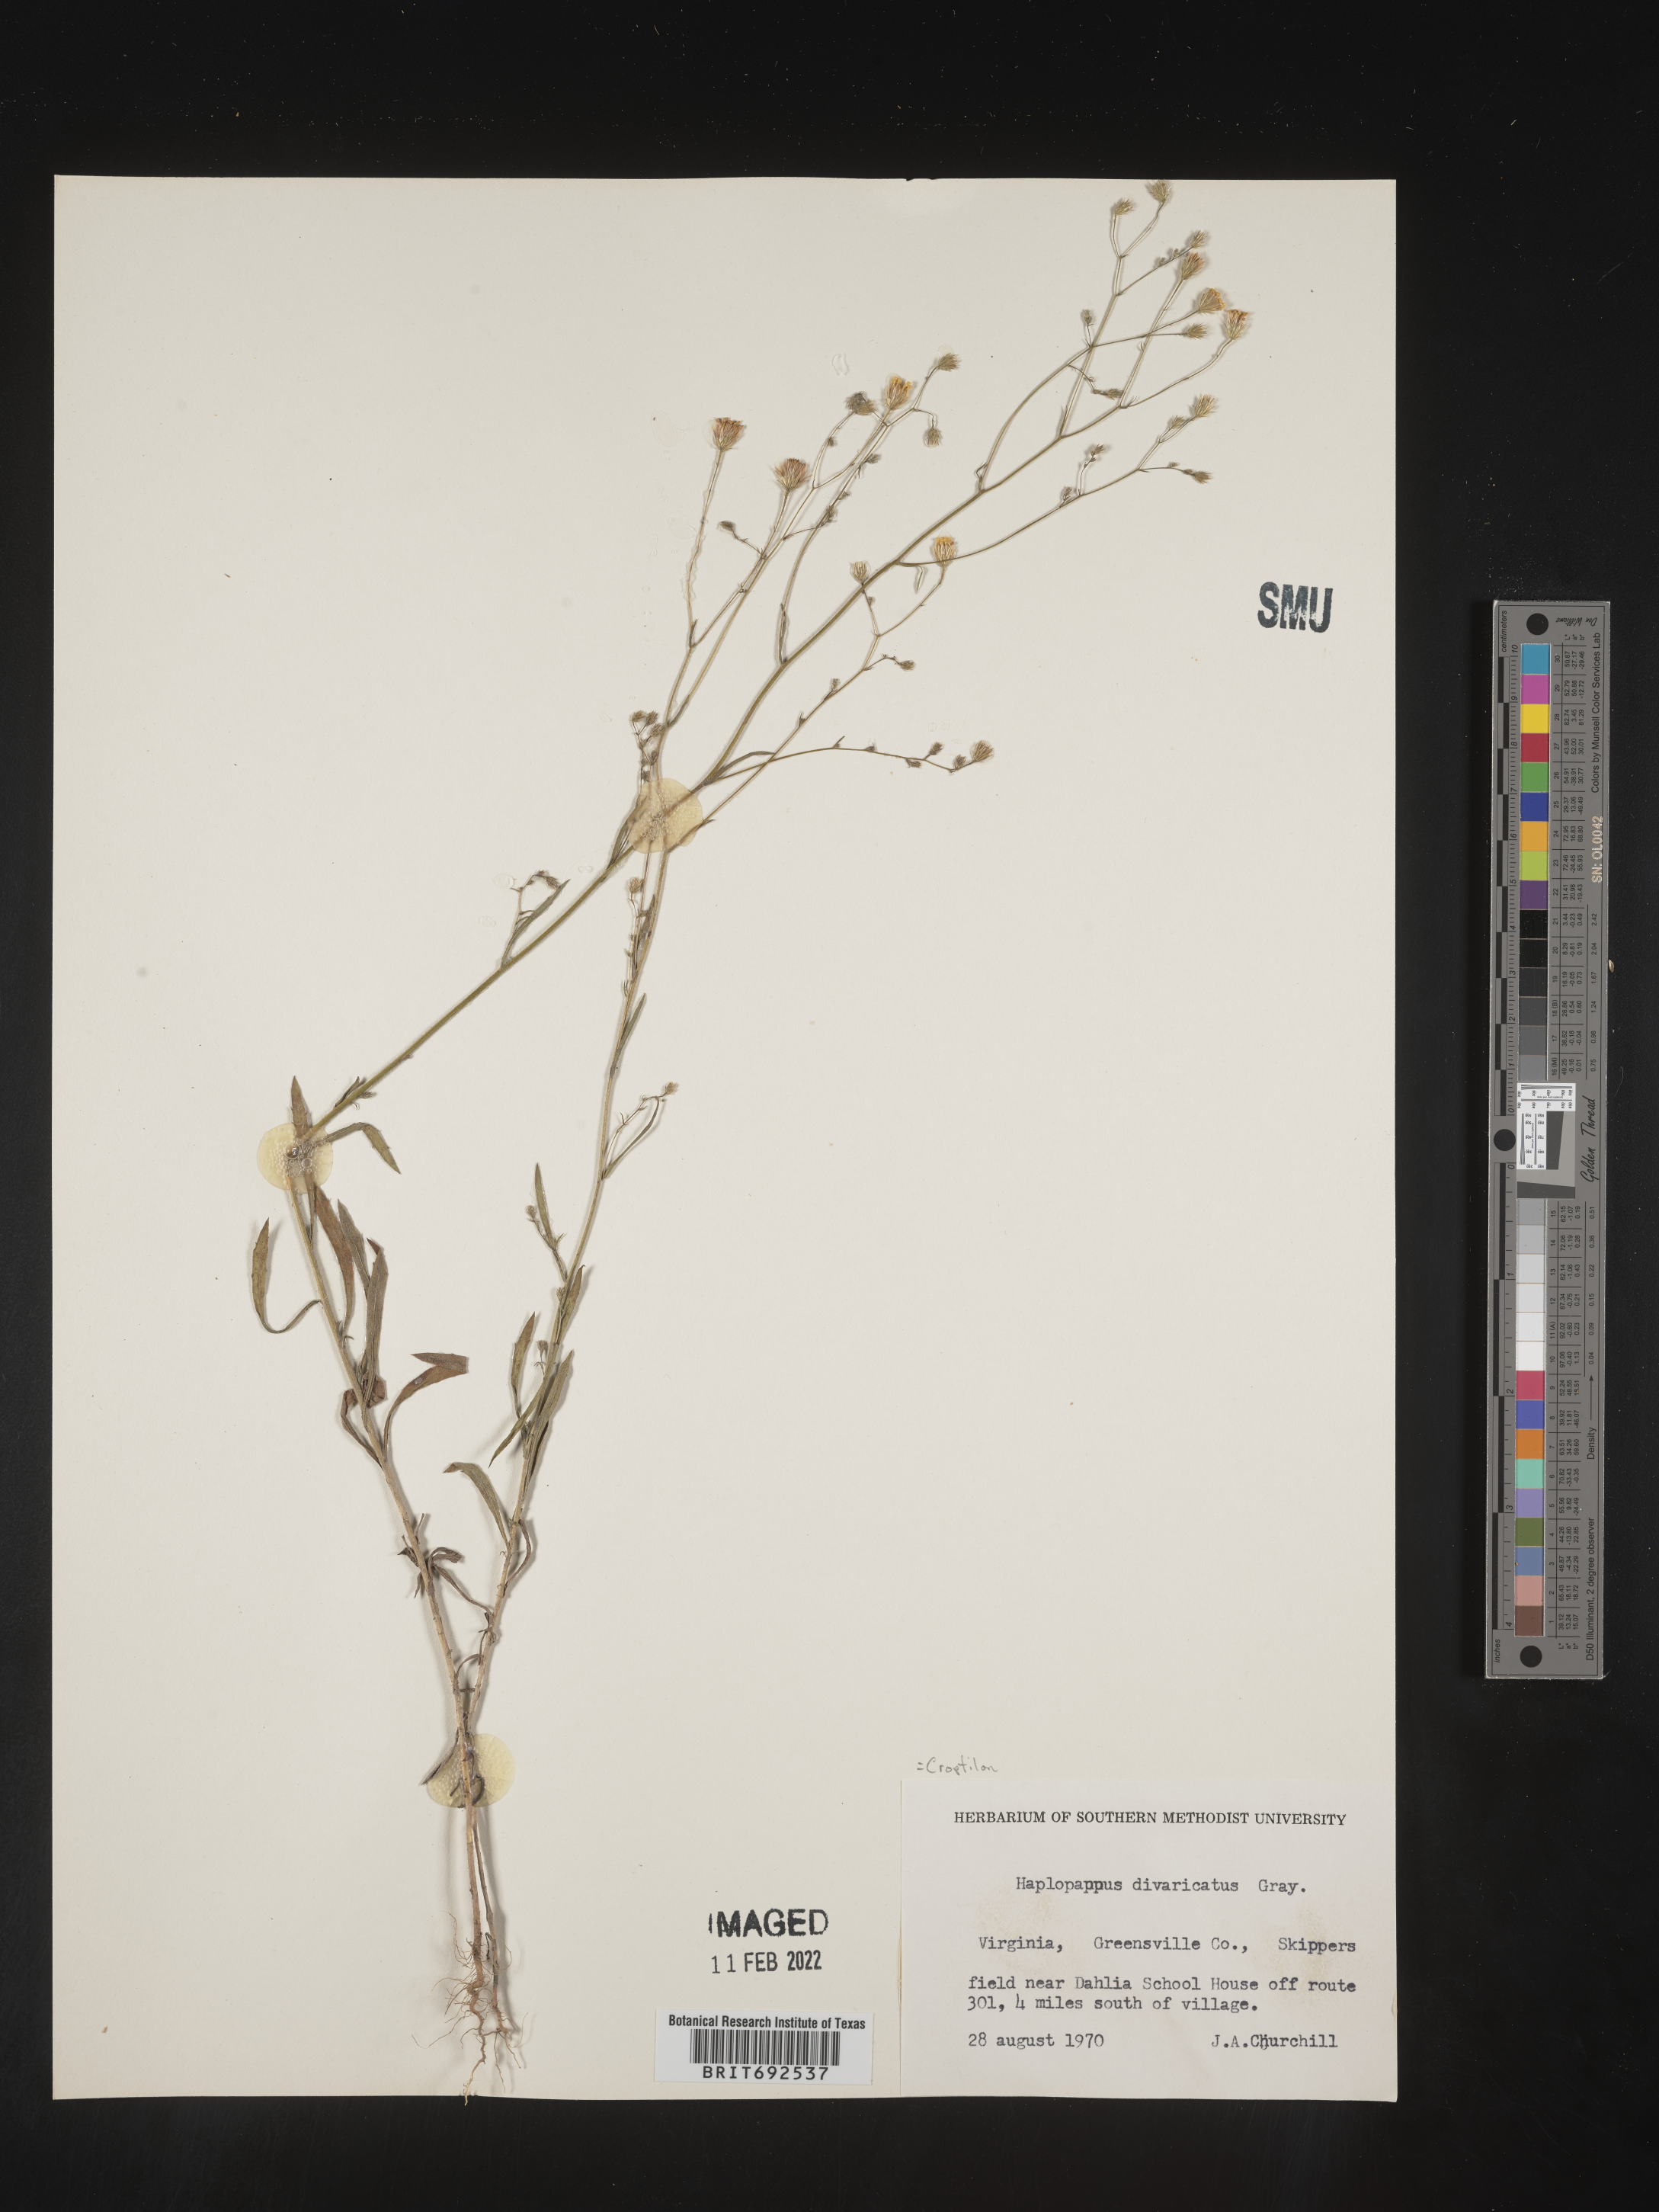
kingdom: Plantae
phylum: Tracheophyta
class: Magnoliopsida
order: Asterales
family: Asteraceae
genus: Croptilon
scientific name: Croptilon divaricatum
